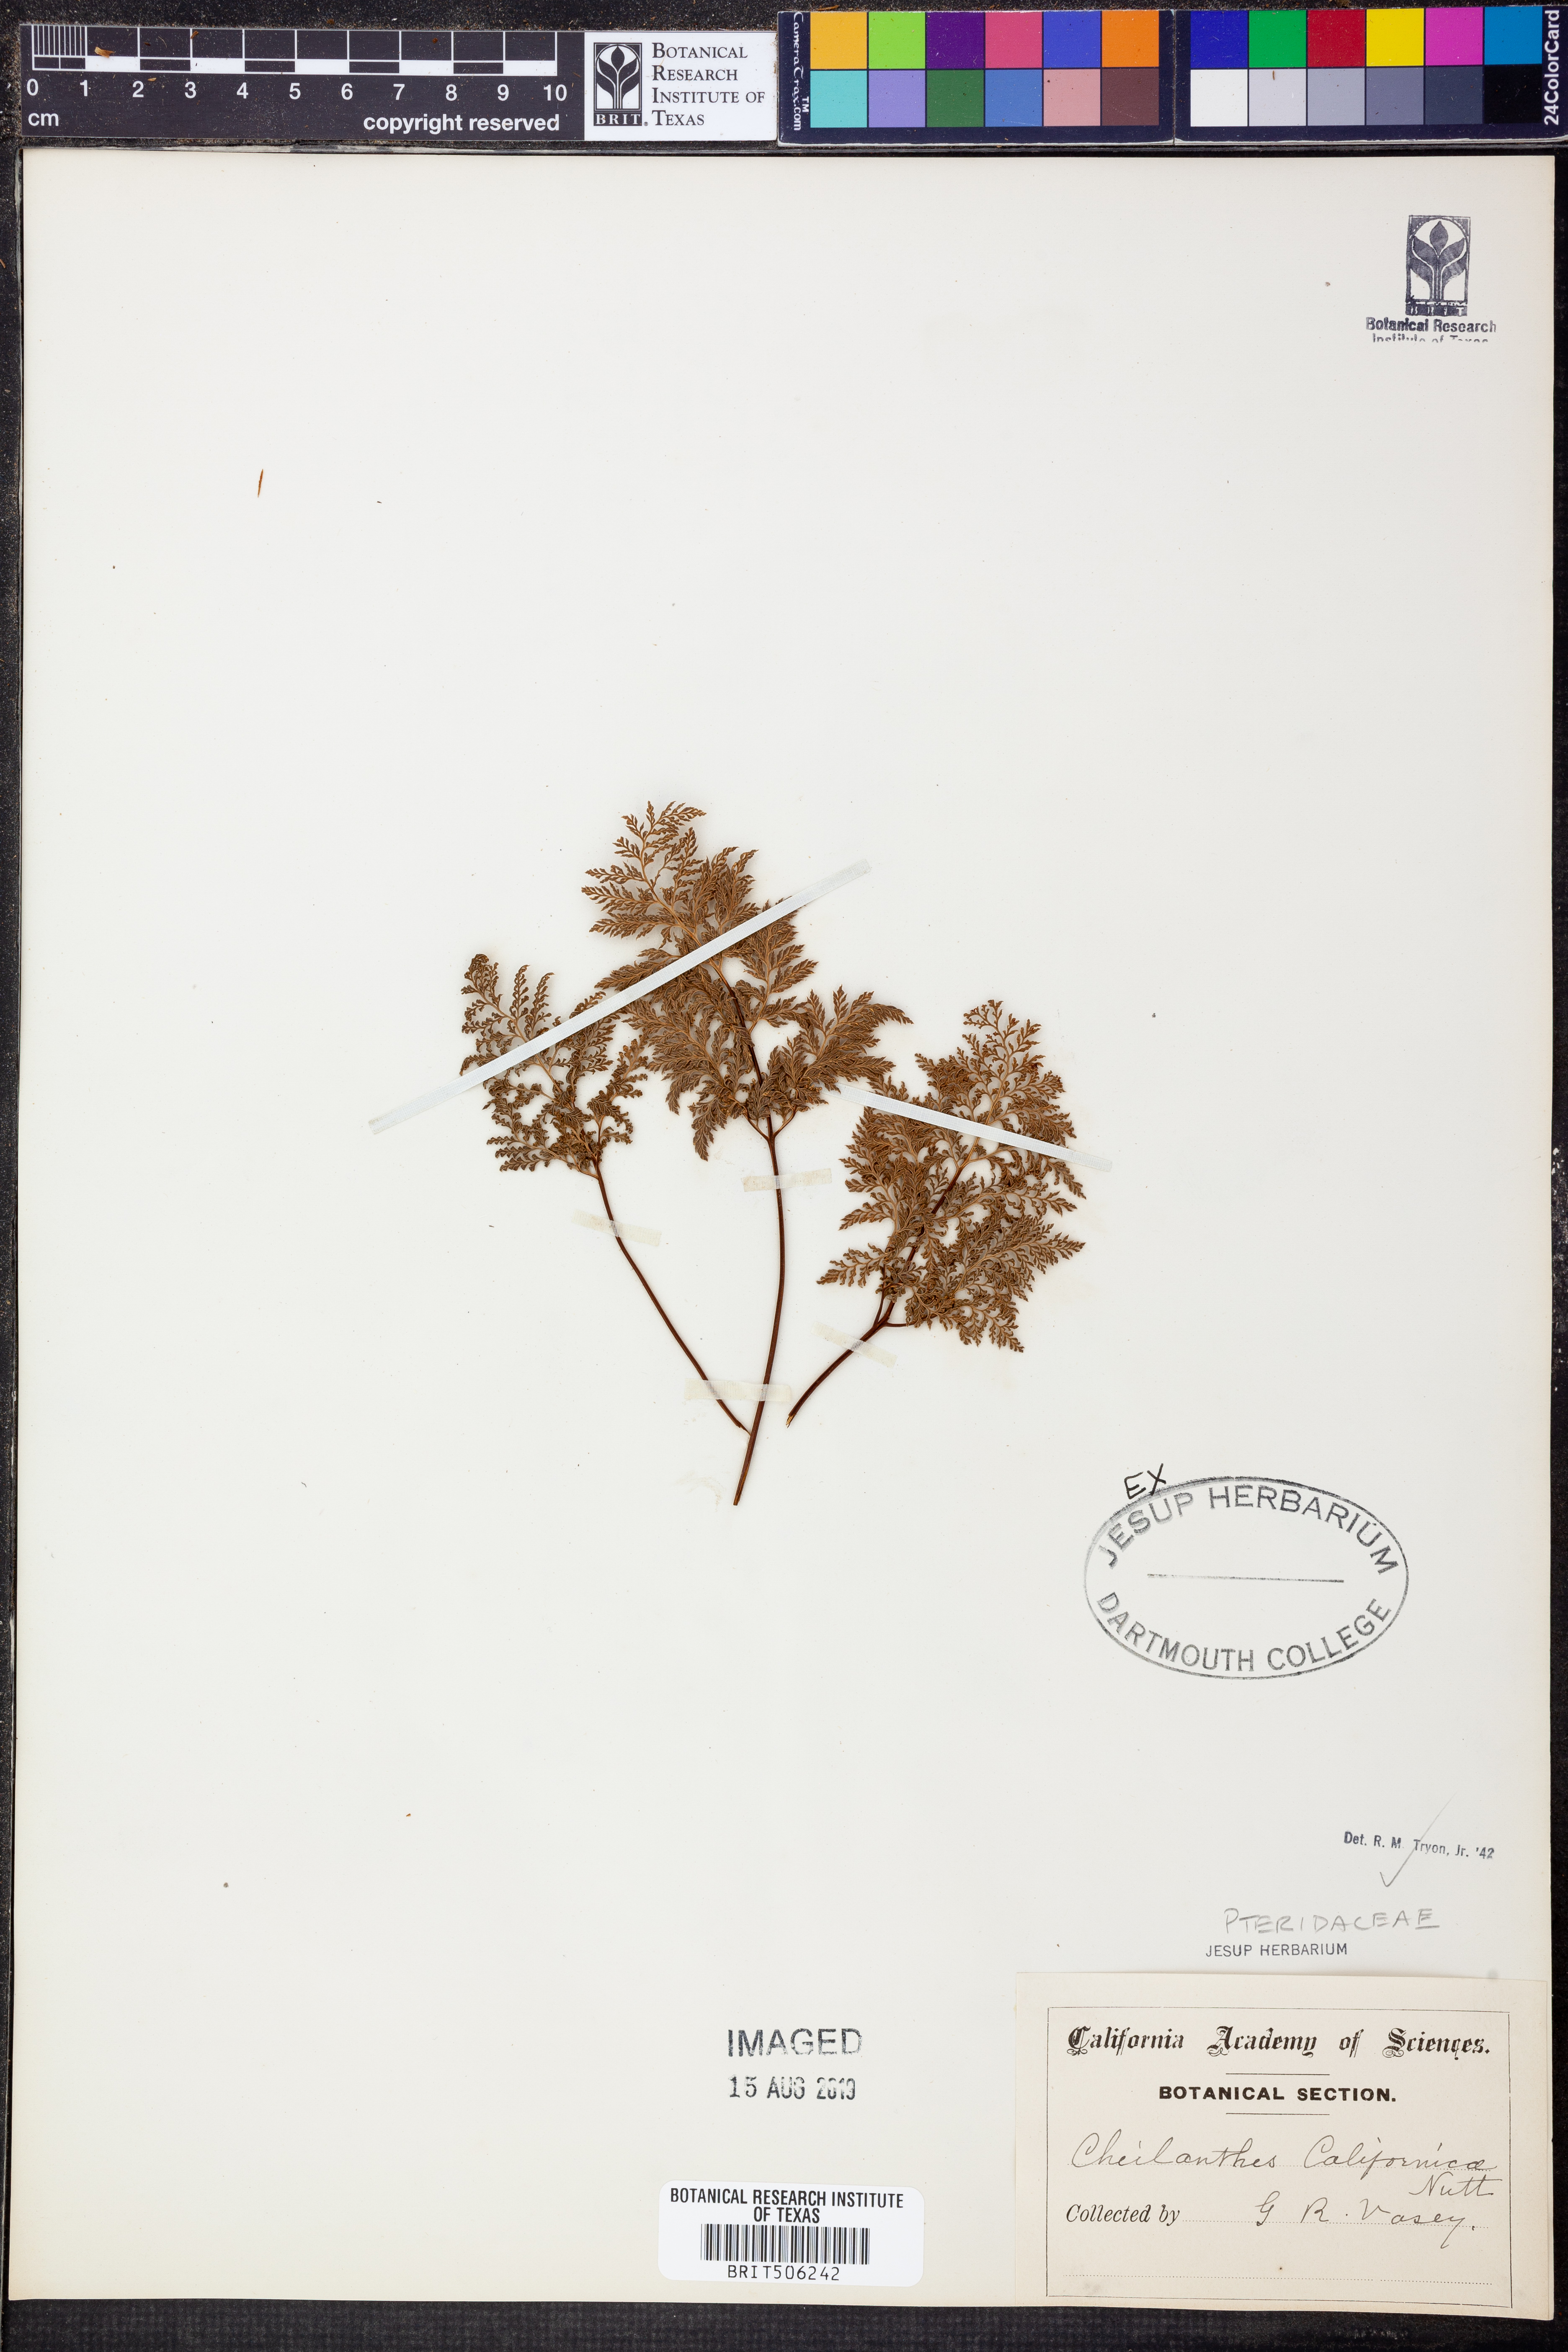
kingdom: Plantae
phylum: Tracheophyta
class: Polypodiopsida
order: Polypodiales
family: Pteridaceae
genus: Aspidotis
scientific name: Aspidotis californica
